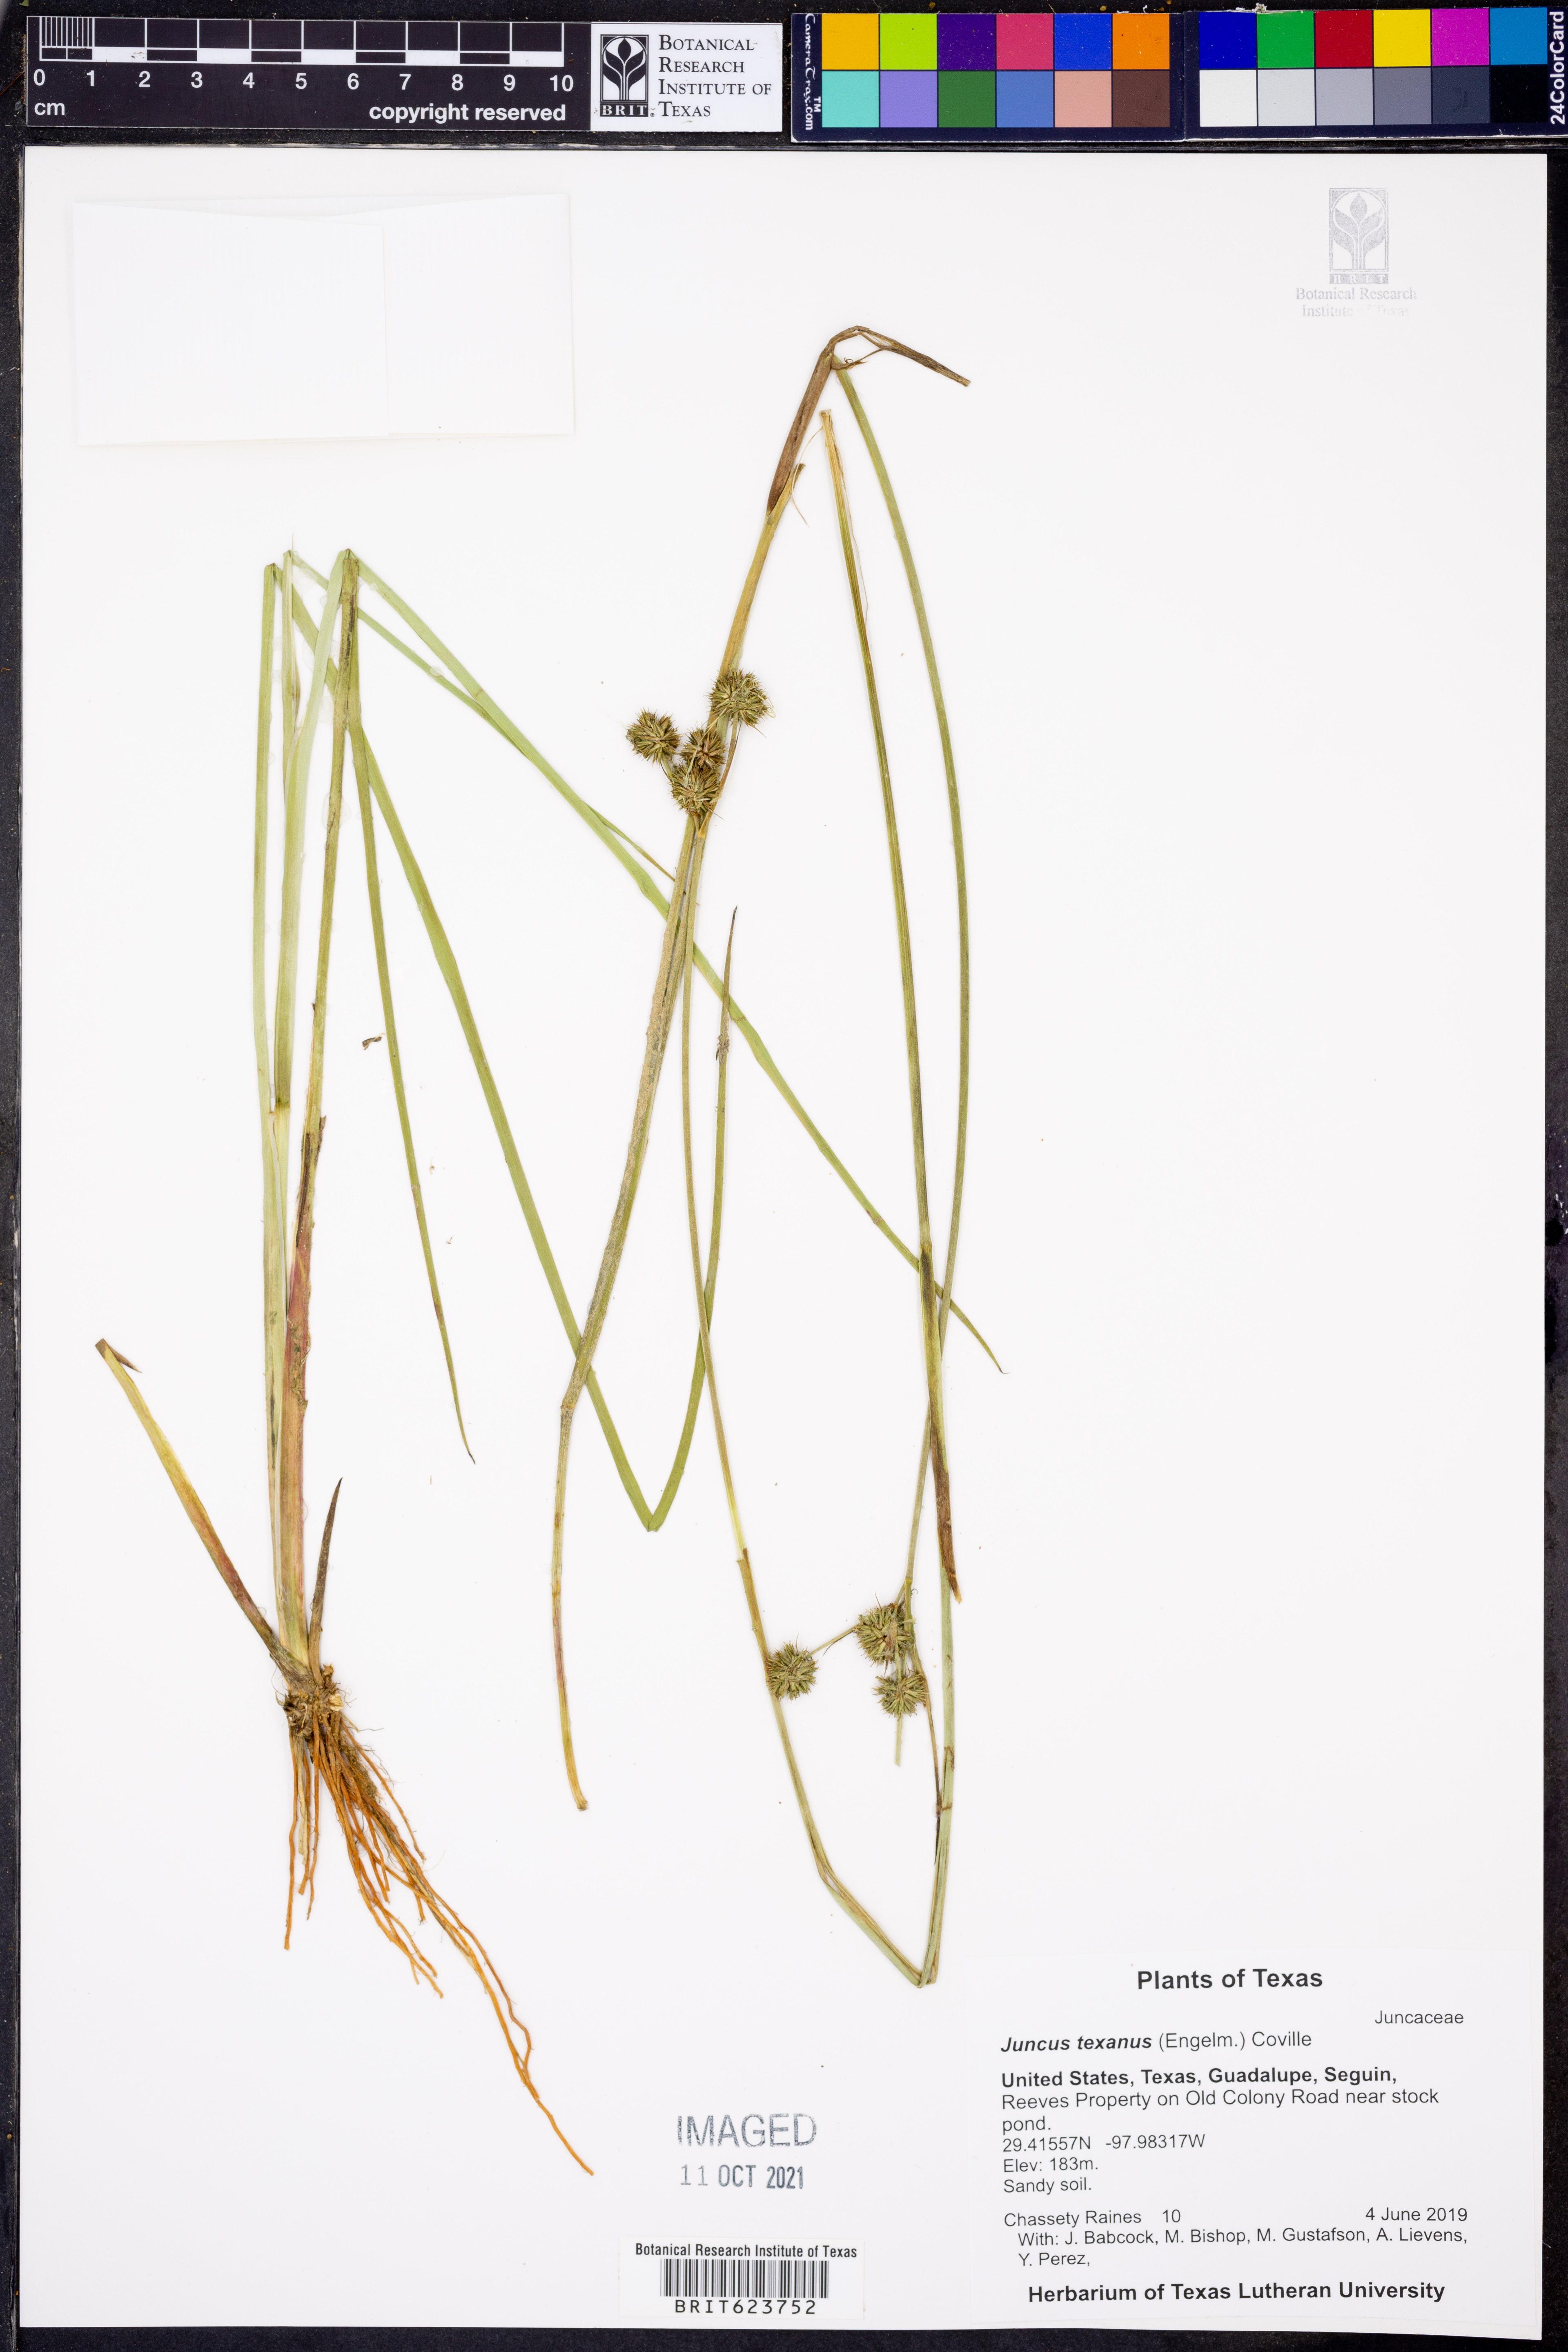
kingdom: Plantae
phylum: Tracheophyta
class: Liliopsida
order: Poales
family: Juncaceae
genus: Juncus
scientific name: Juncus texanus
